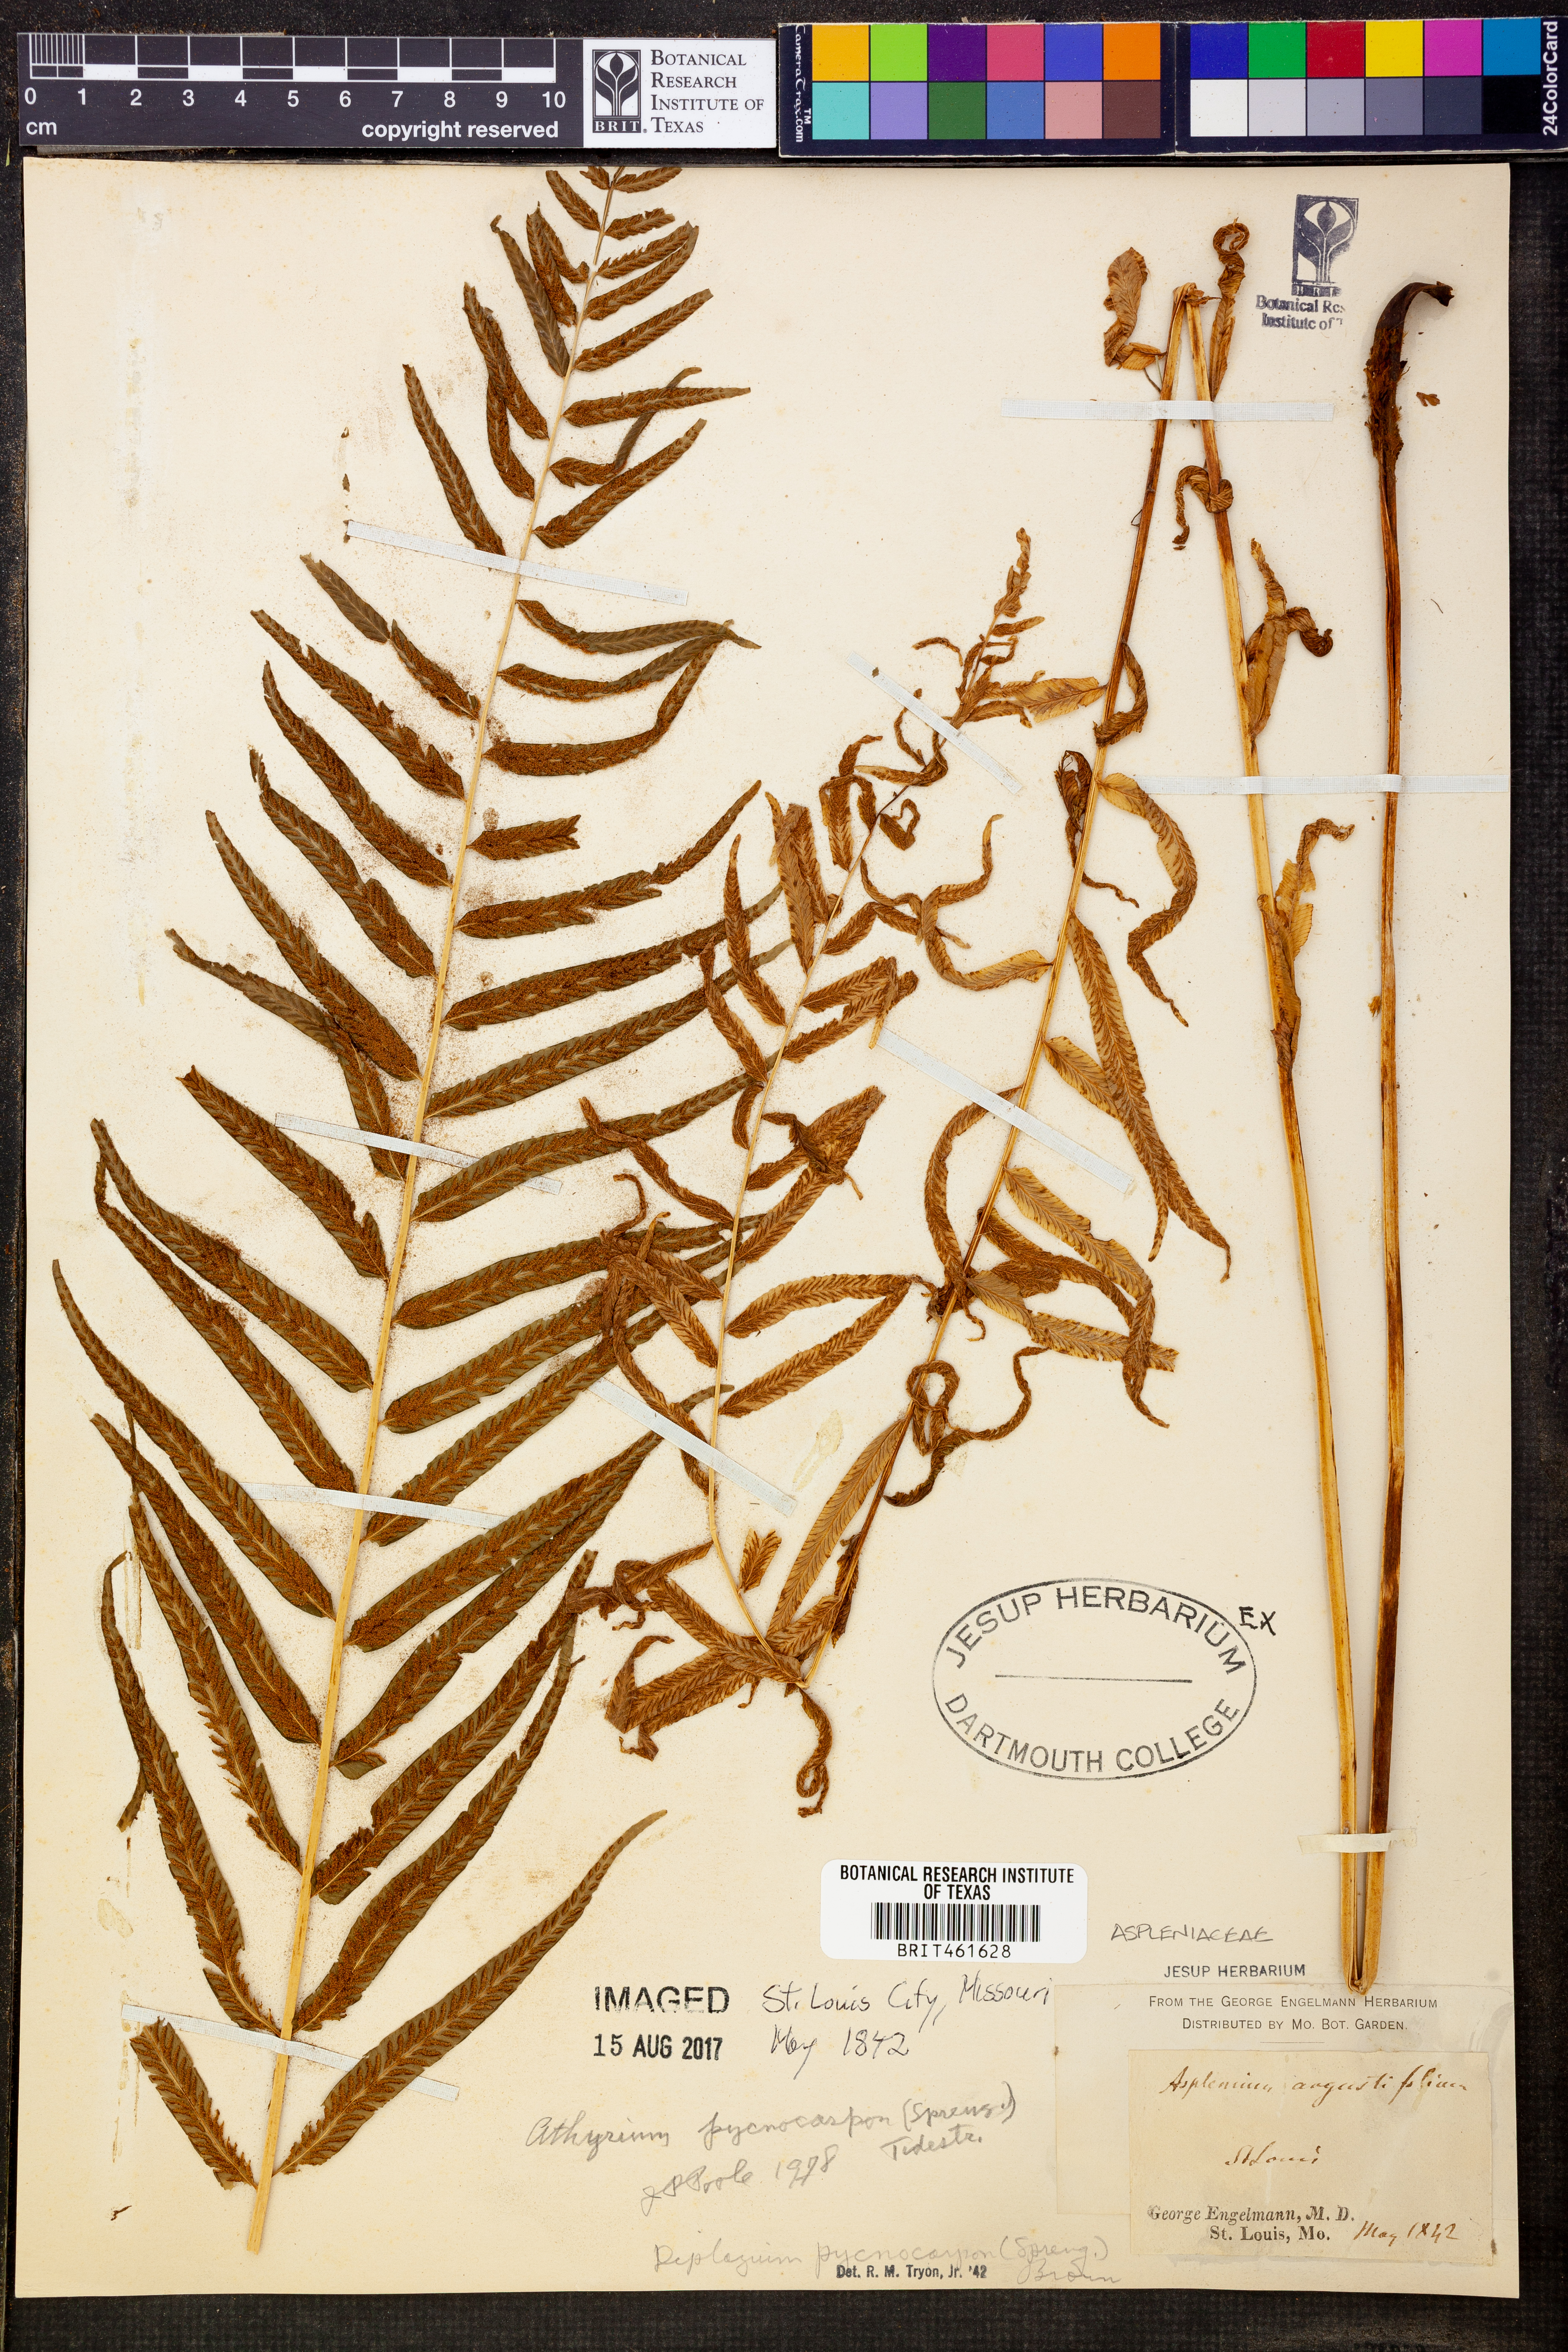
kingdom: Plantae
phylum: Tracheophyta
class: Polypodiopsida
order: Polypodiales
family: Diplaziopsidaceae
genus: Homalosorus
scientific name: Homalosorus pycnocarpos
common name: Glade fern
